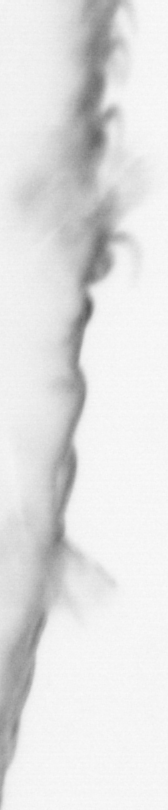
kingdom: Animalia
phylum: Annelida
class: Polychaeta
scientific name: Polychaeta
